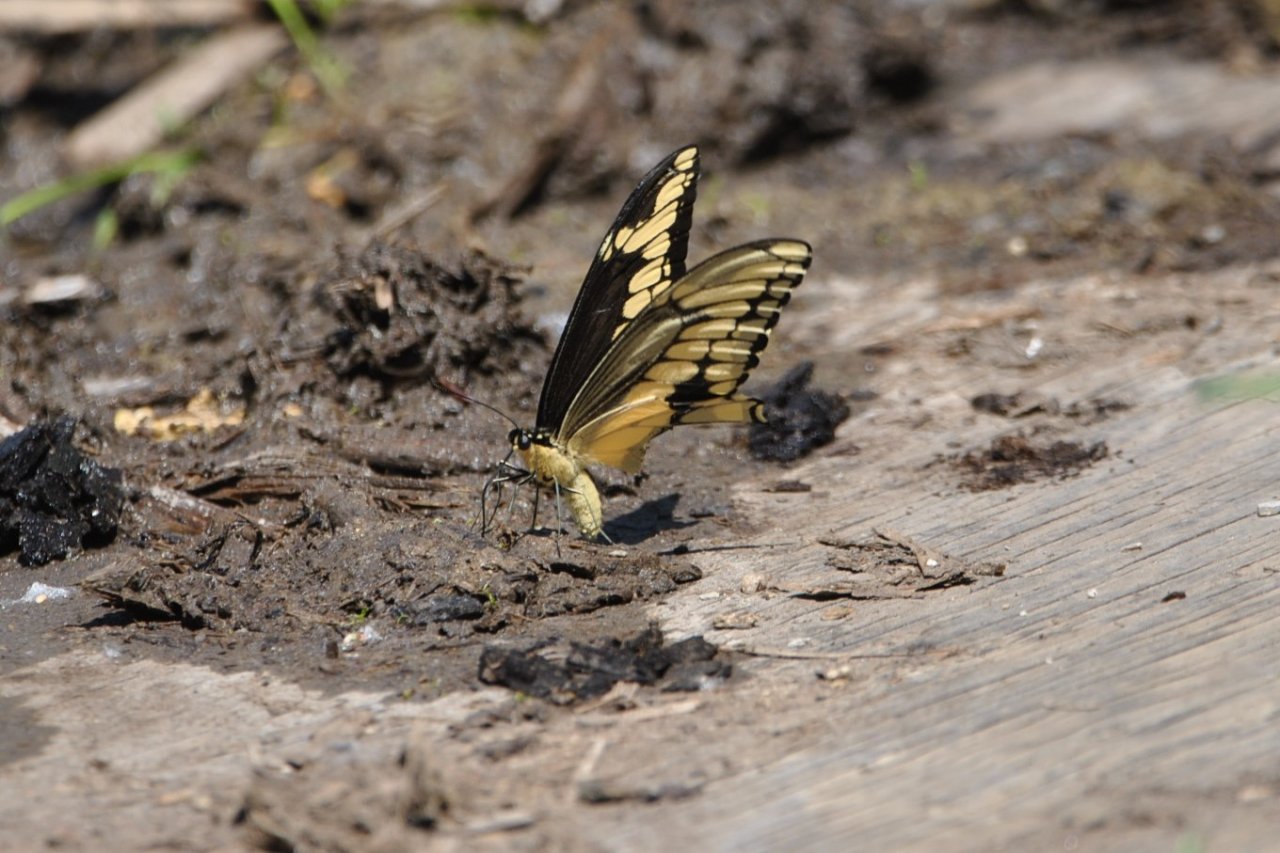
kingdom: Animalia
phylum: Arthropoda
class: Insecta
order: Lepidoptera
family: Papilionidae
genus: Papilio
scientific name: Papilio cresphontes
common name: Eastern Giant Swallowtail
